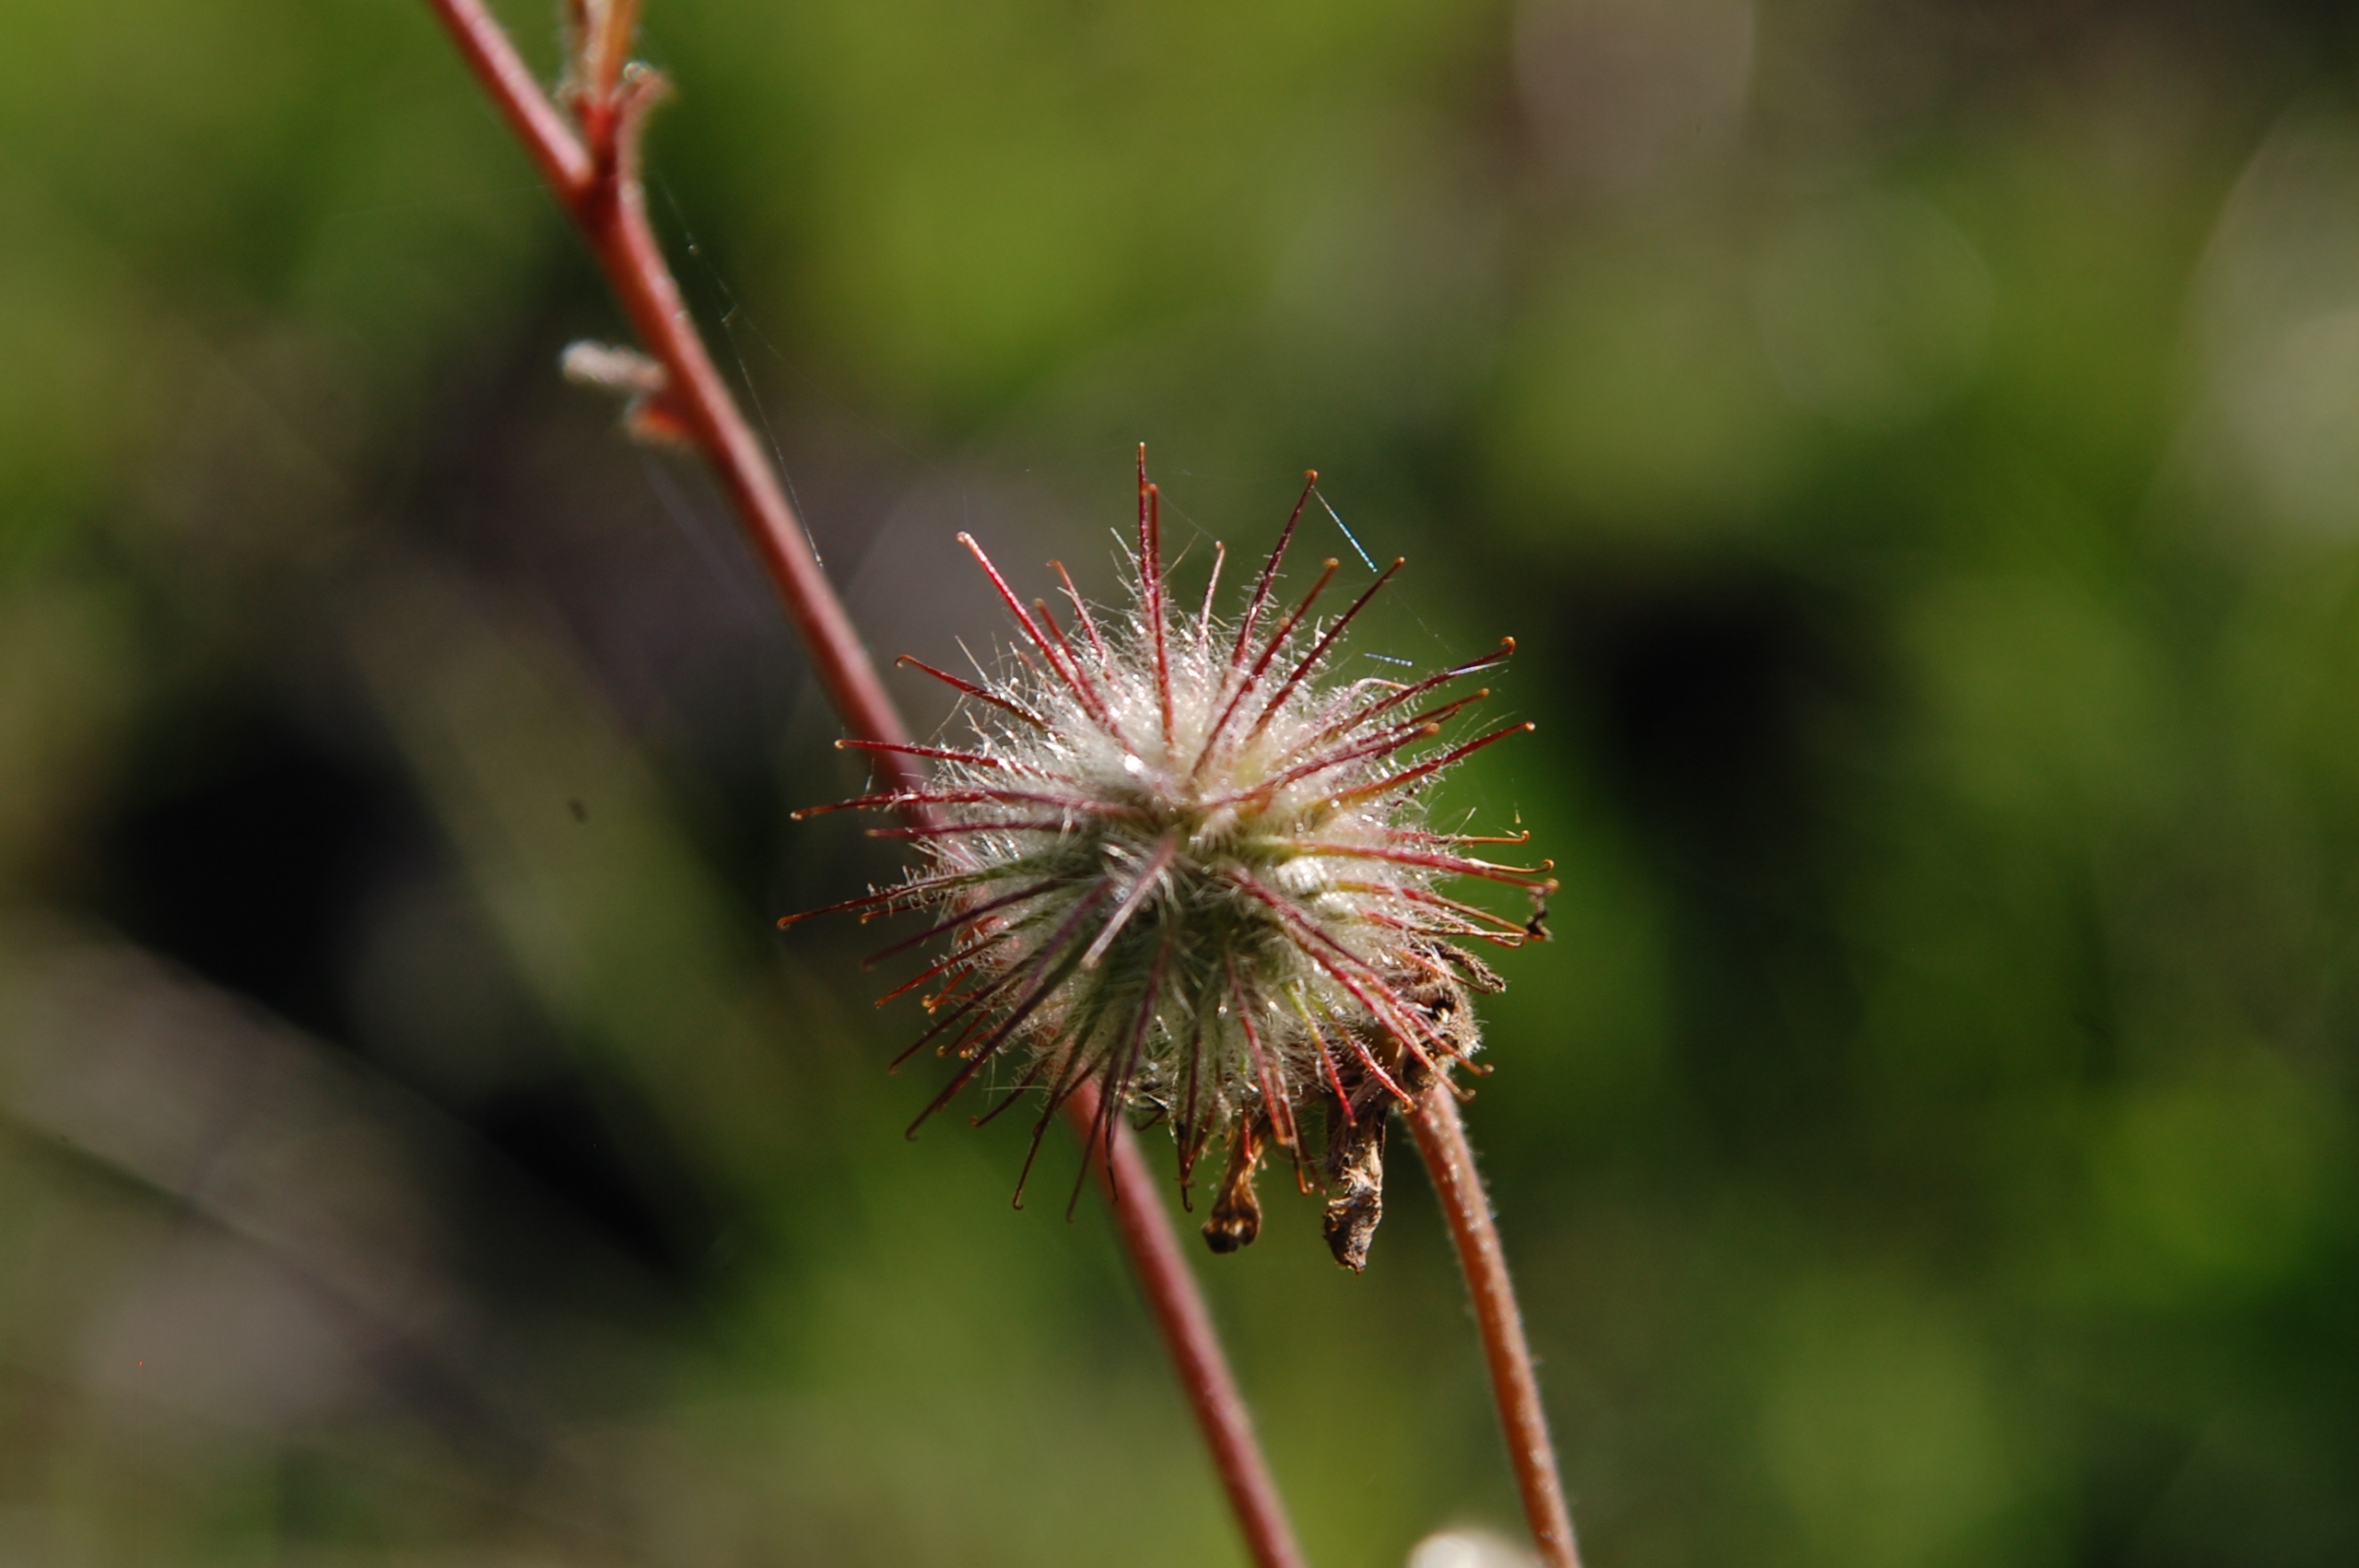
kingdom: Plantae
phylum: Tracheophyta
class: Magnoliopsida
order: Rosales
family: Rosaceae
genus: Geum
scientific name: Geum rivale
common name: Eng-nellikerod
